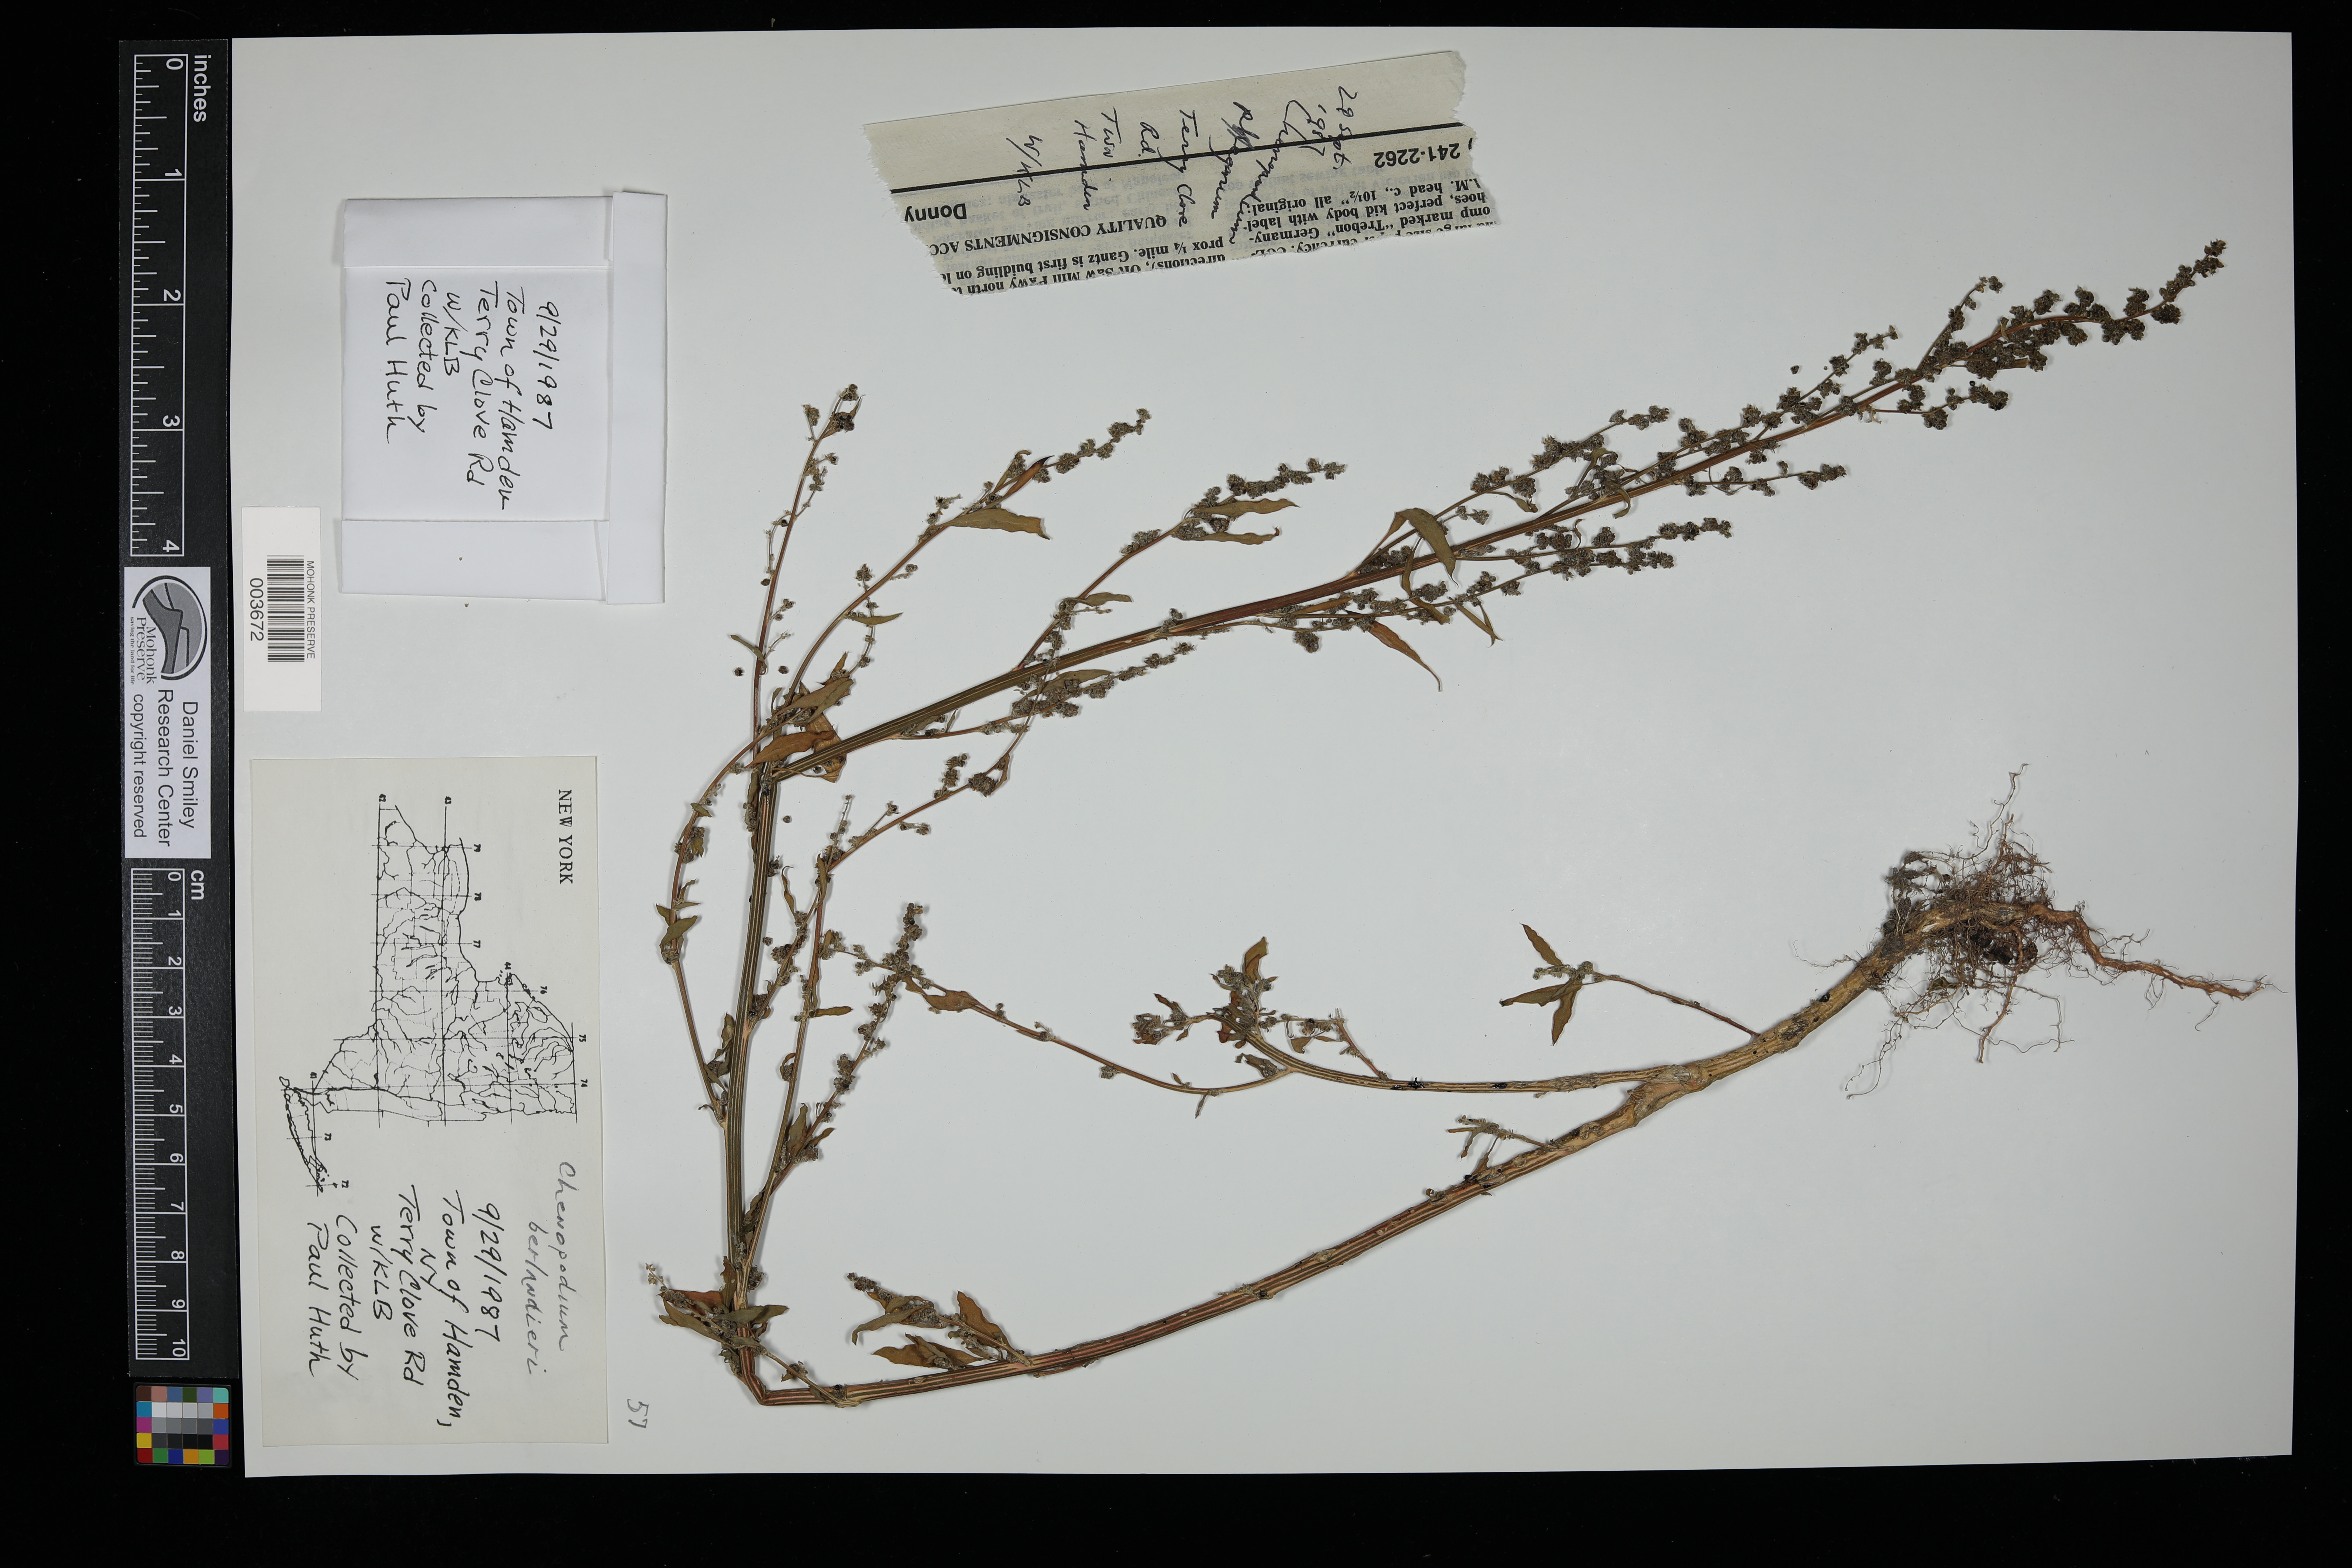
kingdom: Plantae
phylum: Tracheophyta
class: Magnoliopsida
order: Caryophyllales
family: Amaranthaceae
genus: Chenopodium
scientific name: Chenopodium berlandieri
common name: Pit-seed goosefoot
